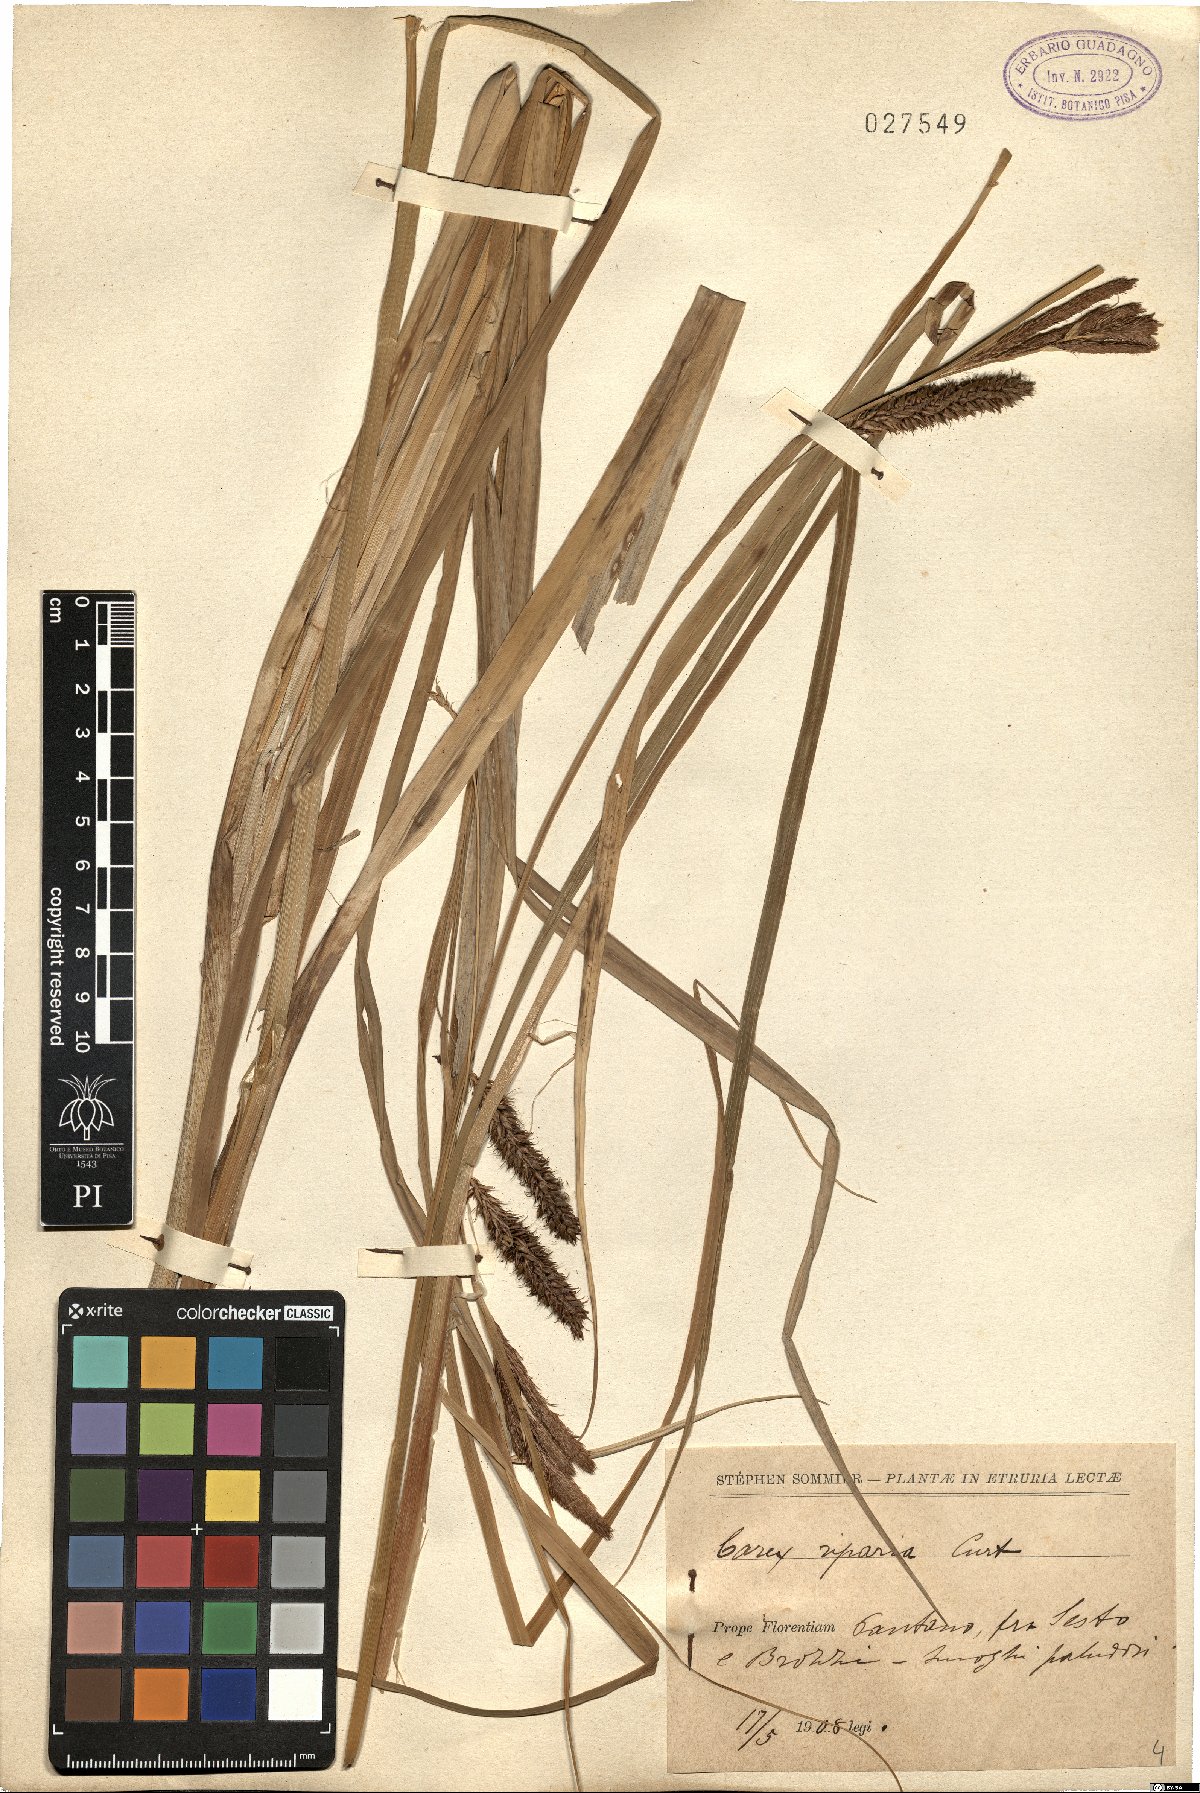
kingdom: Plantae
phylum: Tracheophyta
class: Liliopsida
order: Poales
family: Cyperaceae
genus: Carex
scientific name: Carex riparia
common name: Greater pond-sedge
